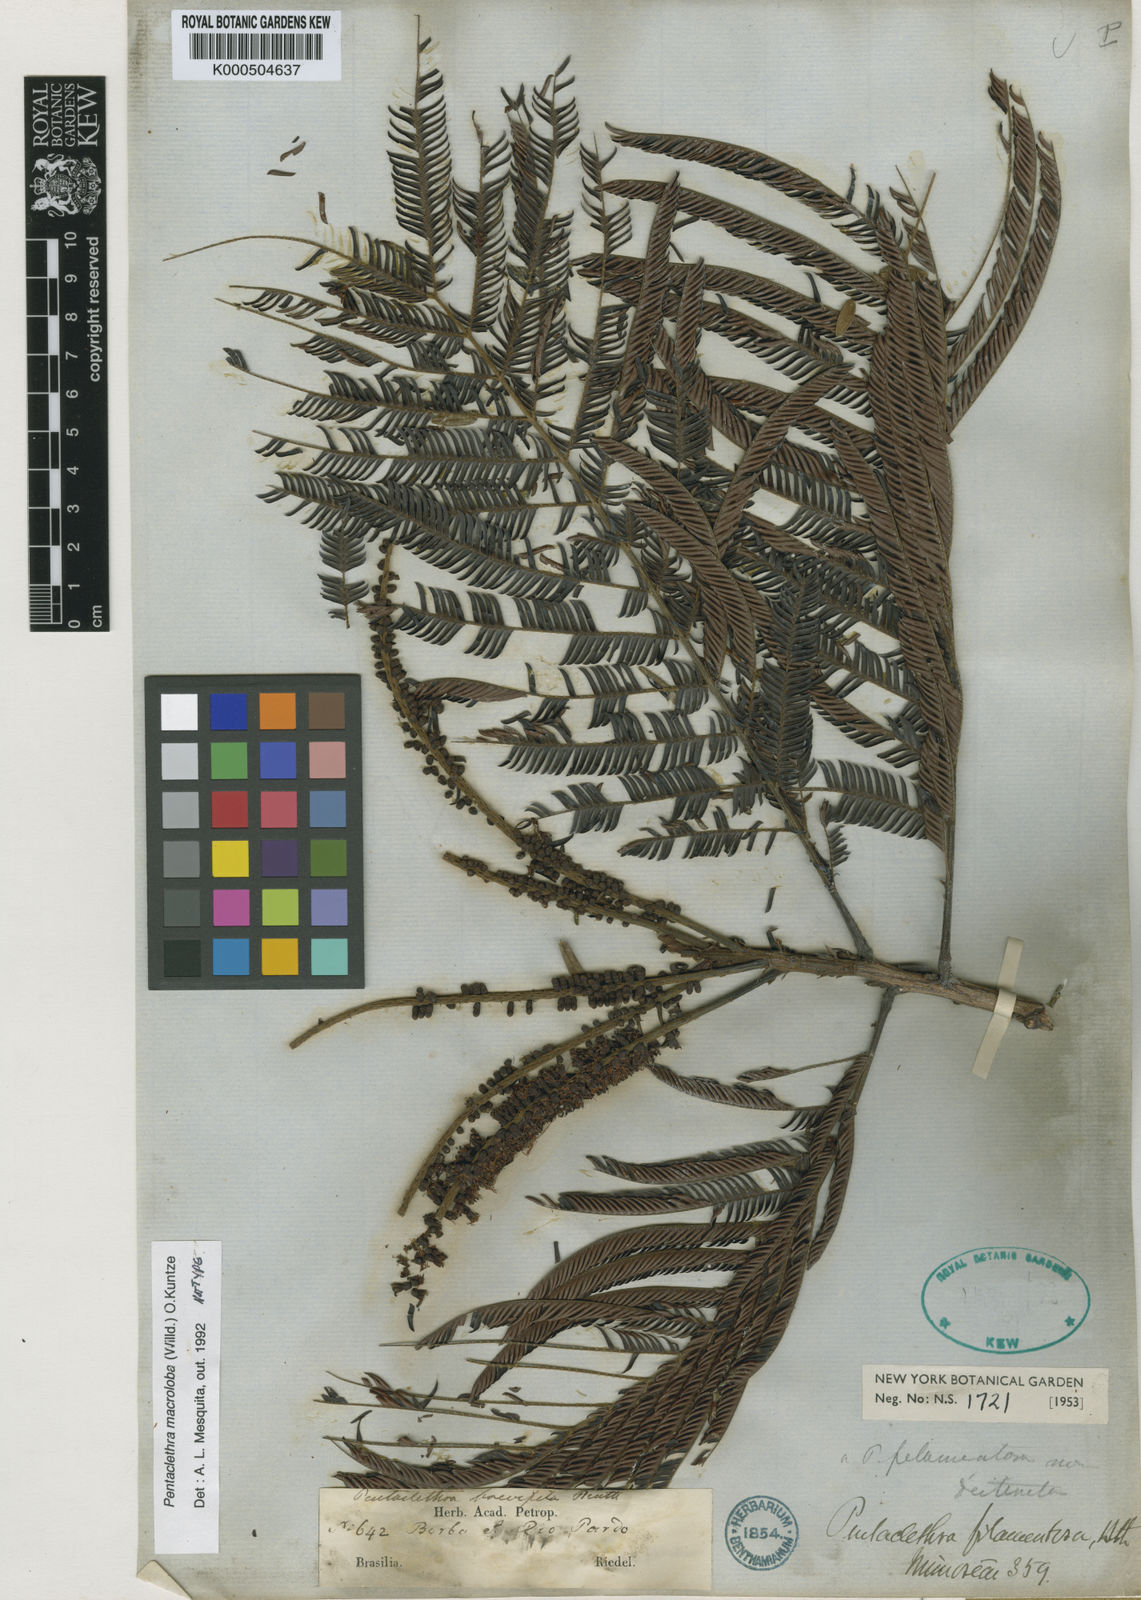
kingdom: Plantae
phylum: Tracheophyta
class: Magnoliopsida
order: Fabales
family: Fabaceae
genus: Pentaclethra
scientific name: Pentaclethra macroloba
